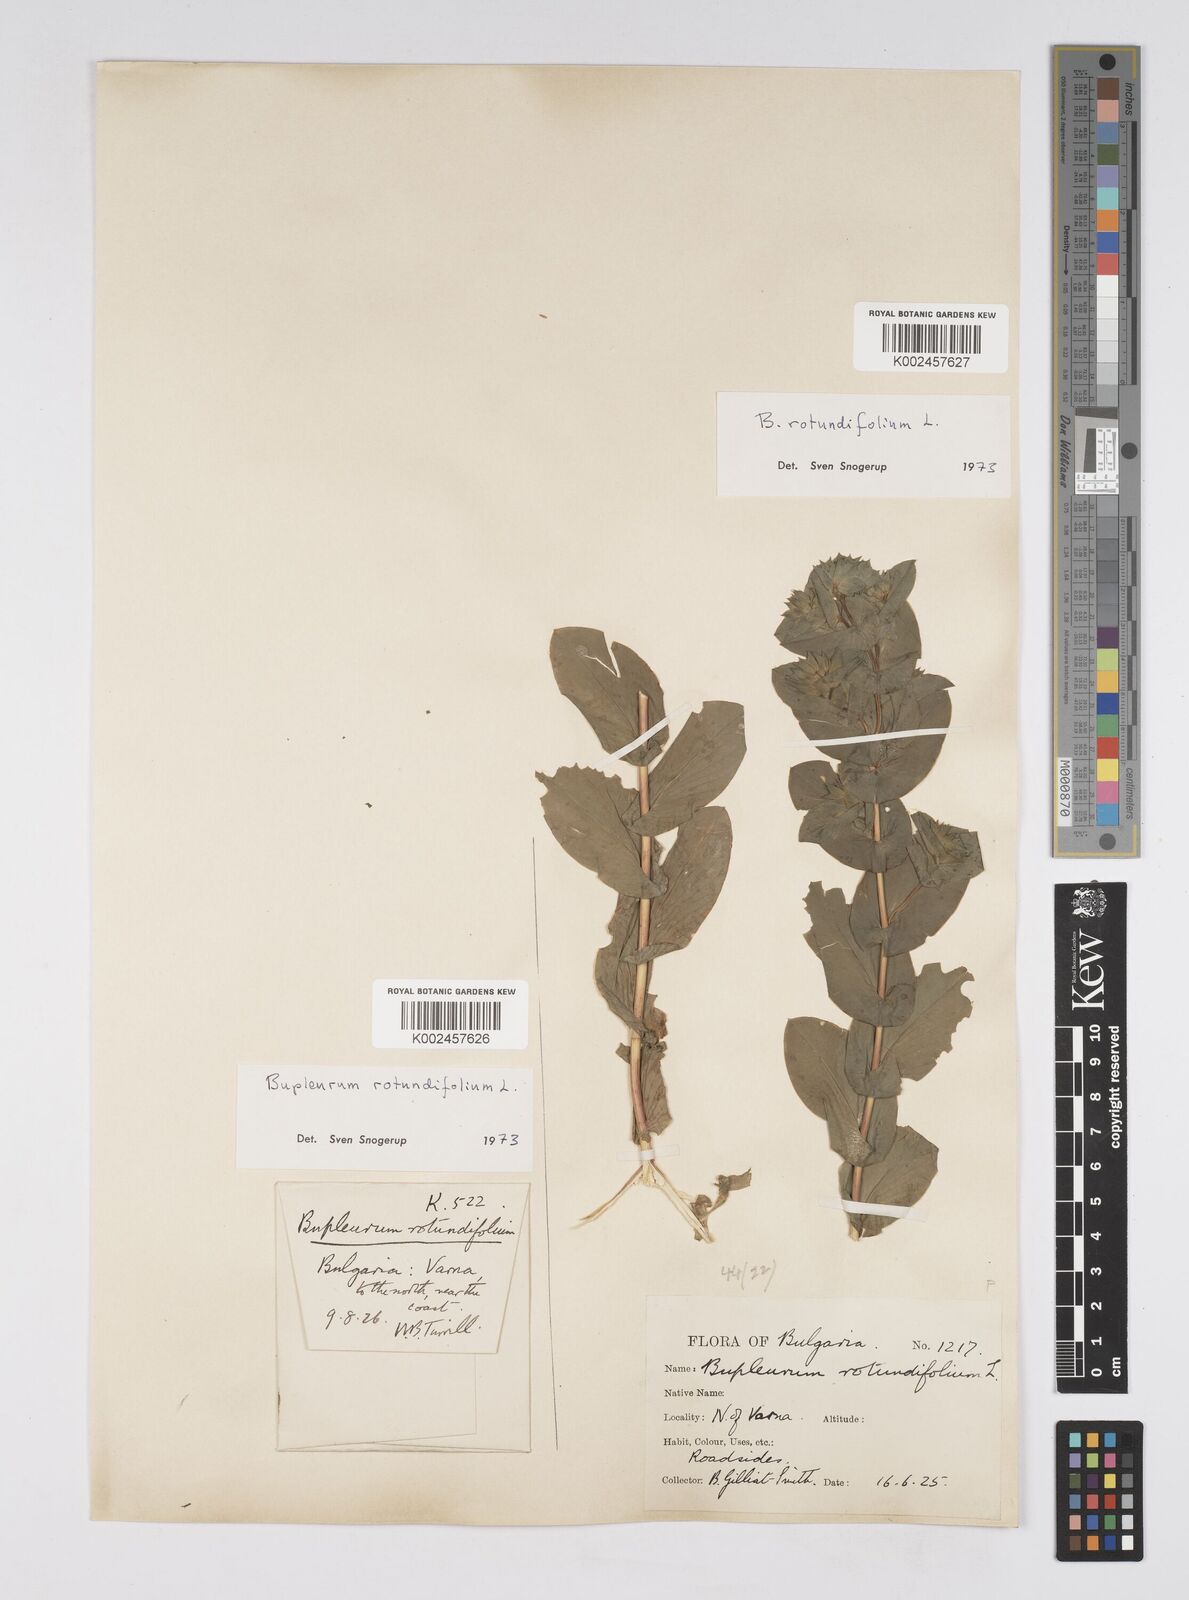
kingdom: Plantae
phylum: Tracheophyta
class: Magnoliopsida
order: Apiales
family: Apiaceae
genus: Bupleurum
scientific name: Bupleurum rotundifolium
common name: Thorow-wax
